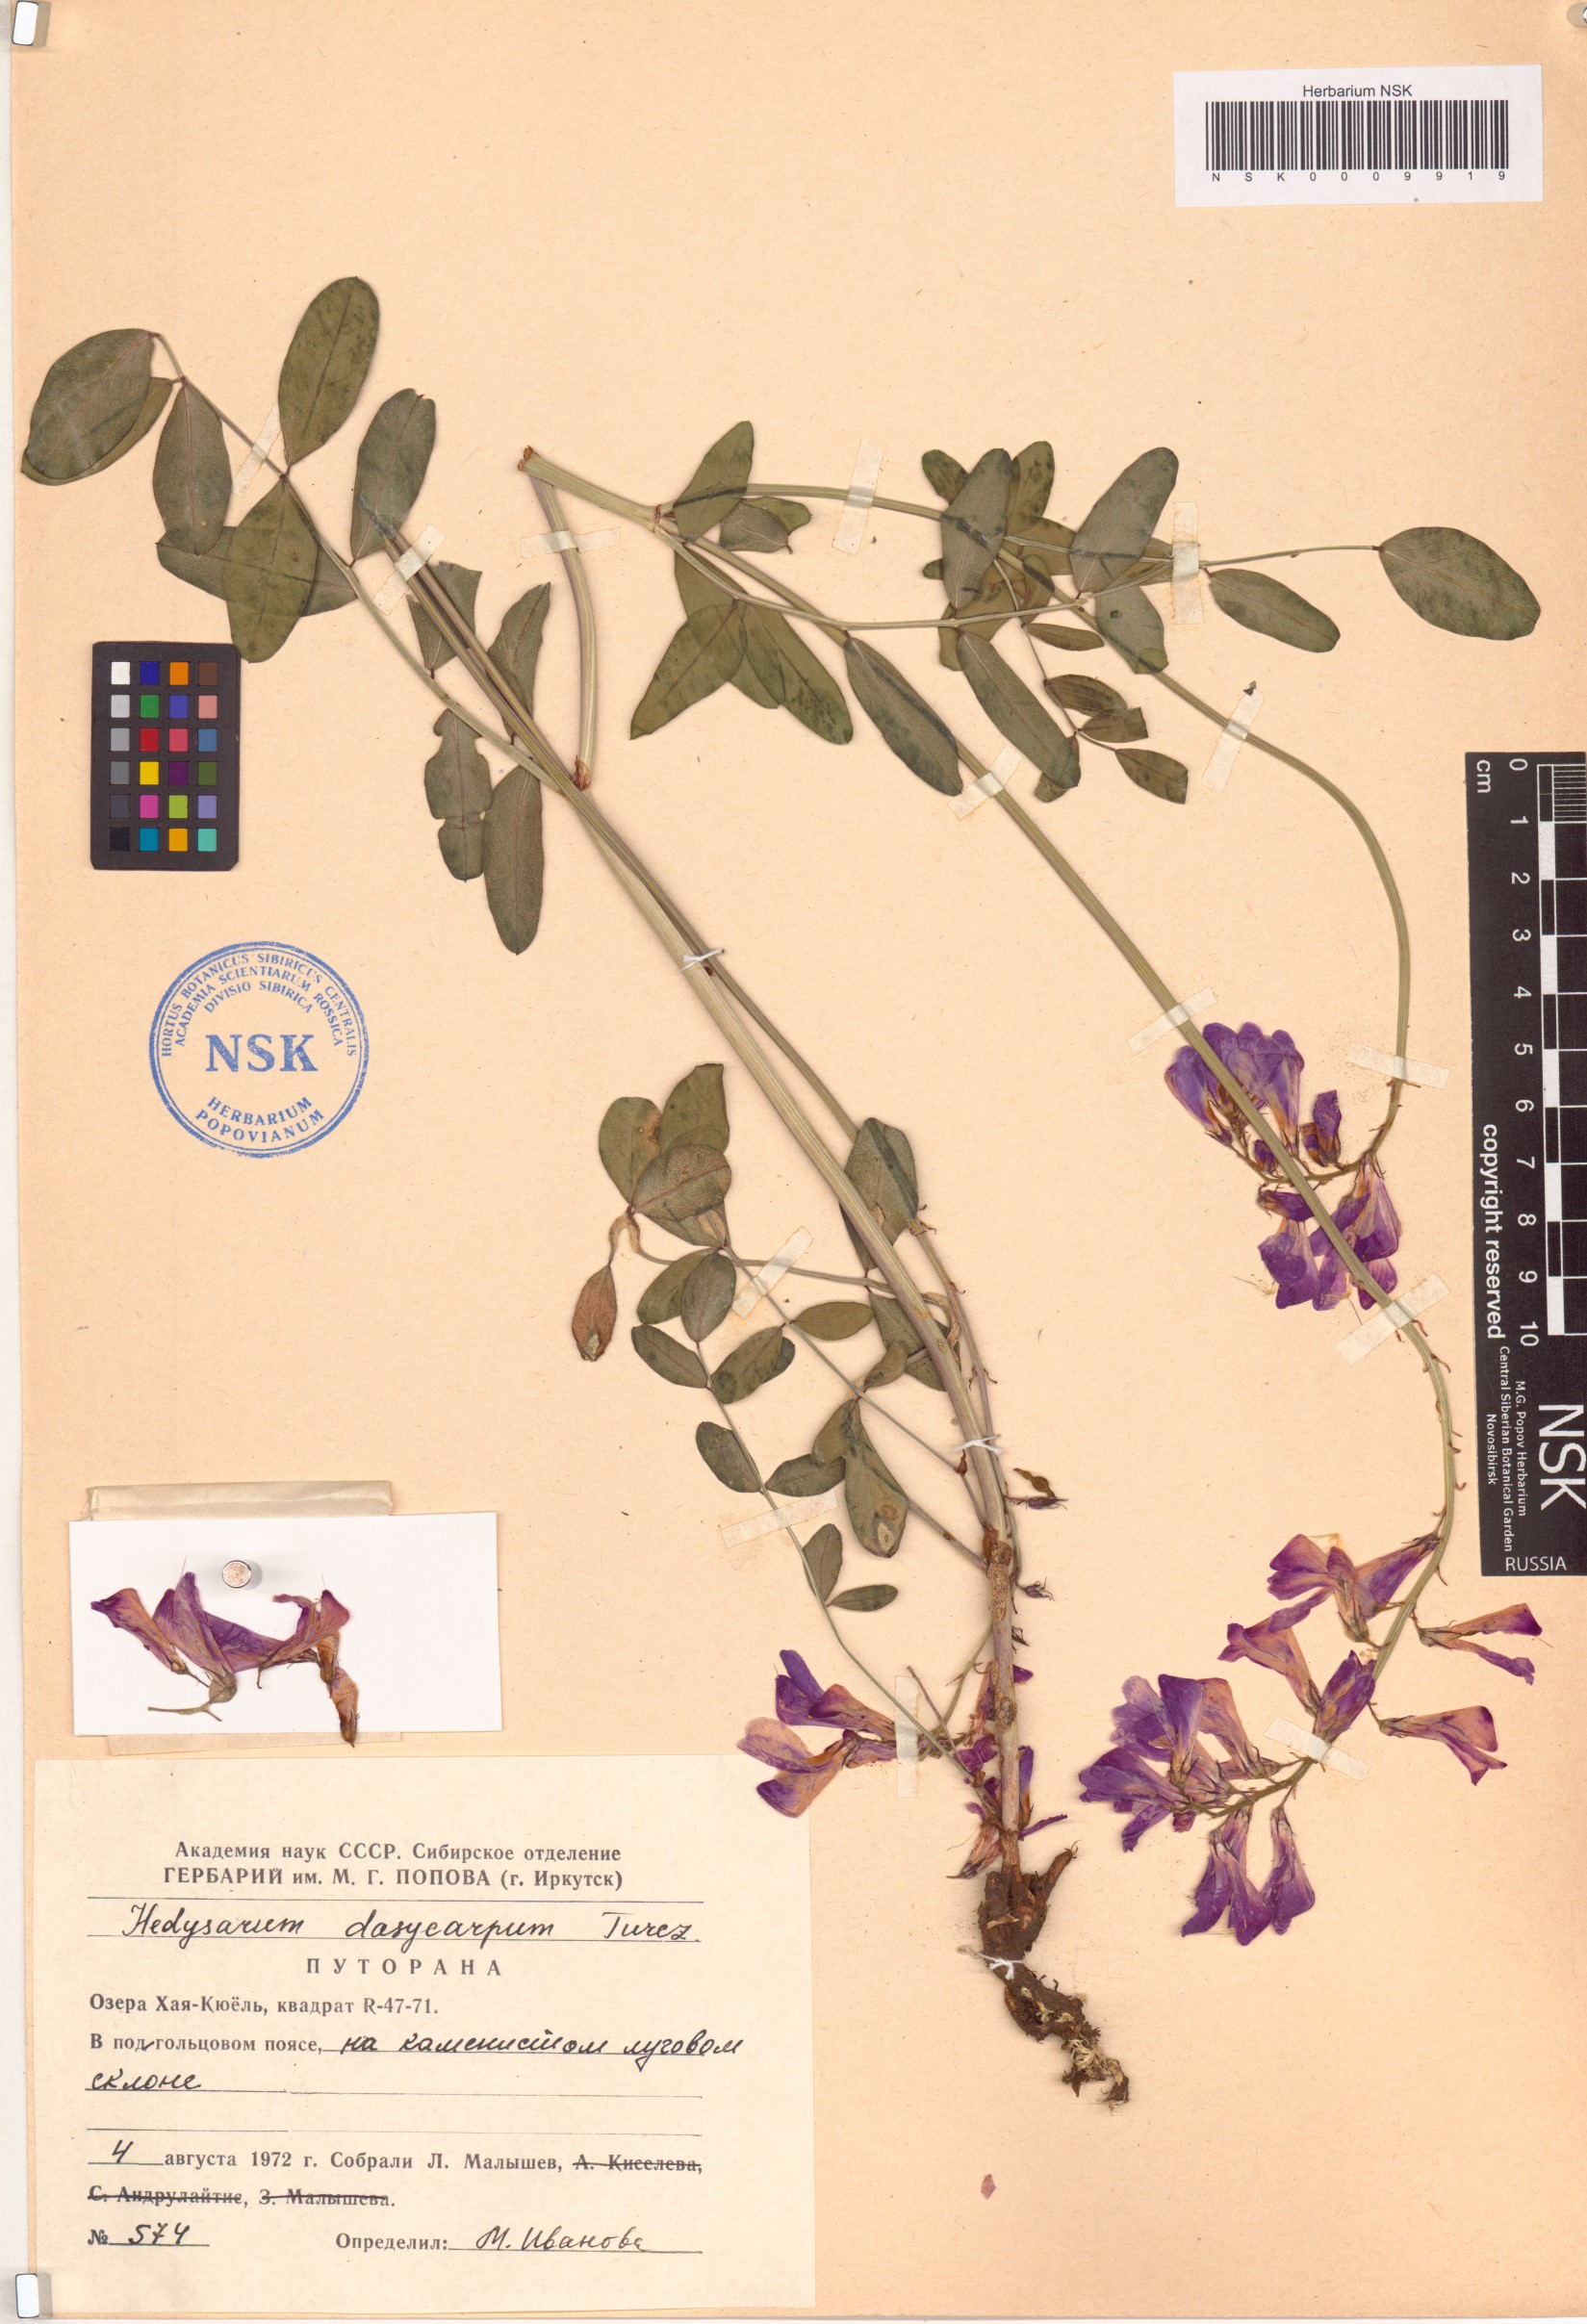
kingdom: Plantae
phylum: Tracheophyta
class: Magnoliopsida
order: Fabales
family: Fabaceae
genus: Hedysarum
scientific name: Hedysarum dasycarpum
